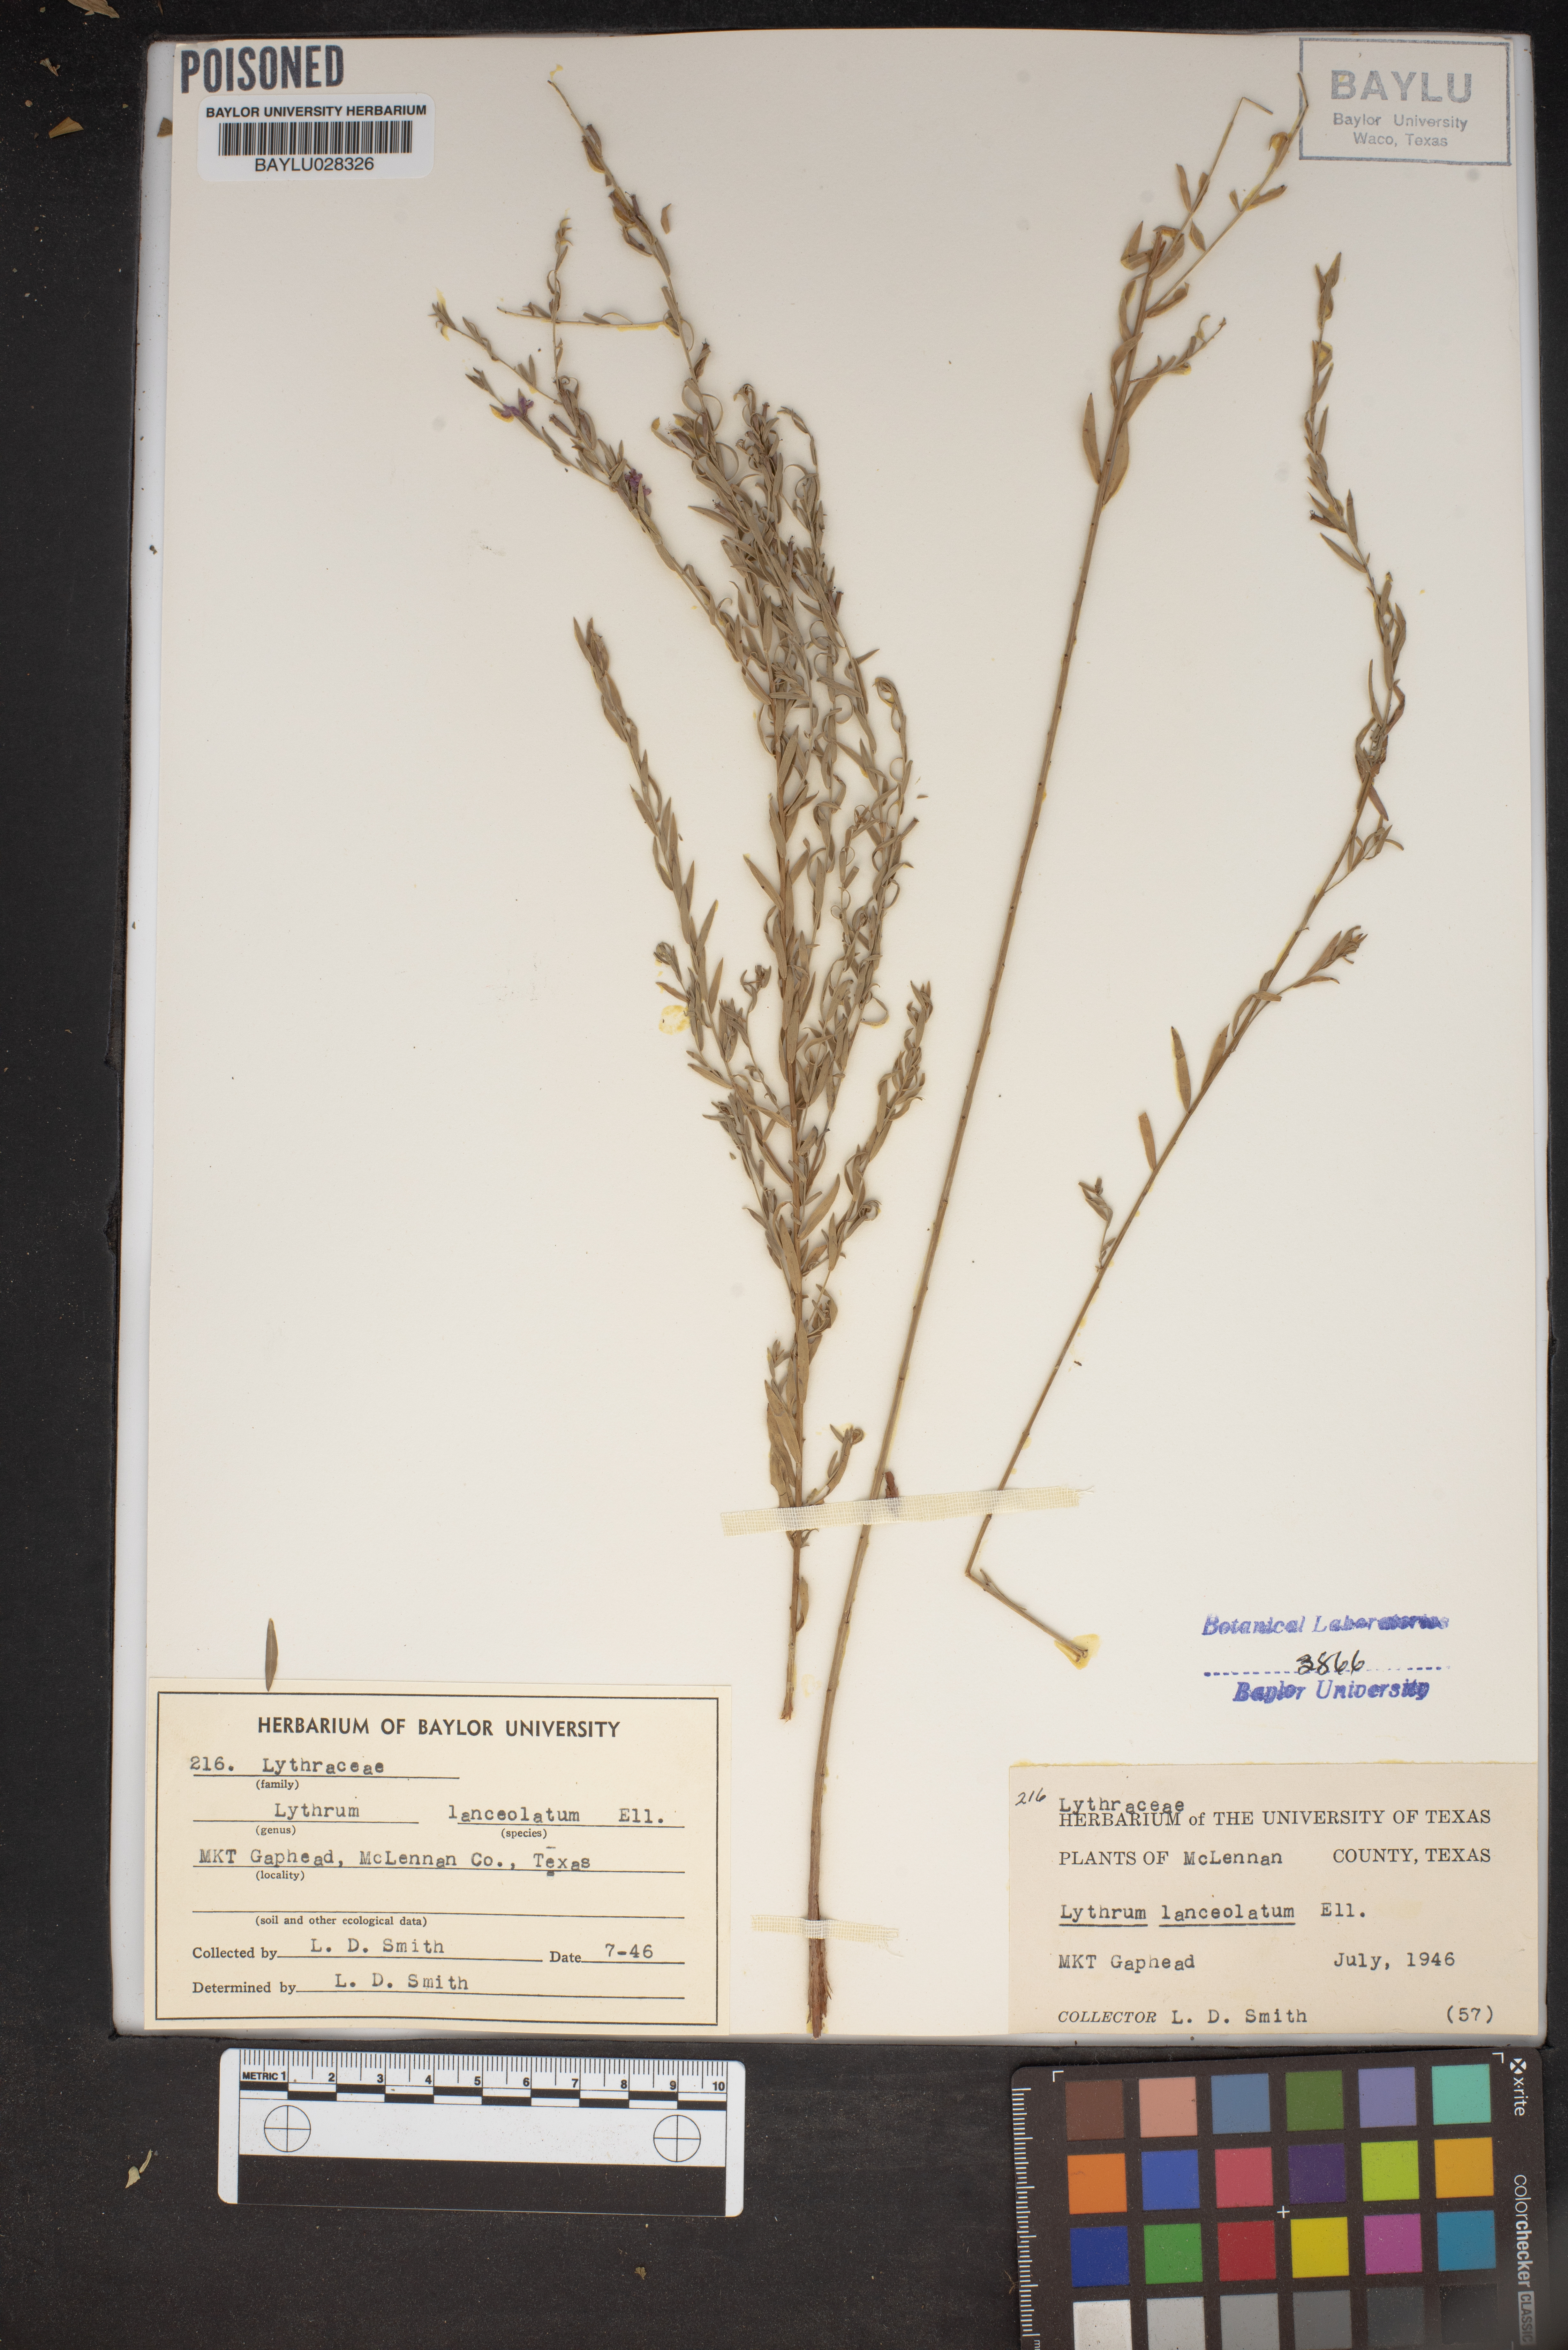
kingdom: Plantae
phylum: Tracheophyta
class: Magnoliopsida
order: Myrtales
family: Lythraceae
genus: Lythrum
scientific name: Lythrum alatum
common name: Winged loosestrife
